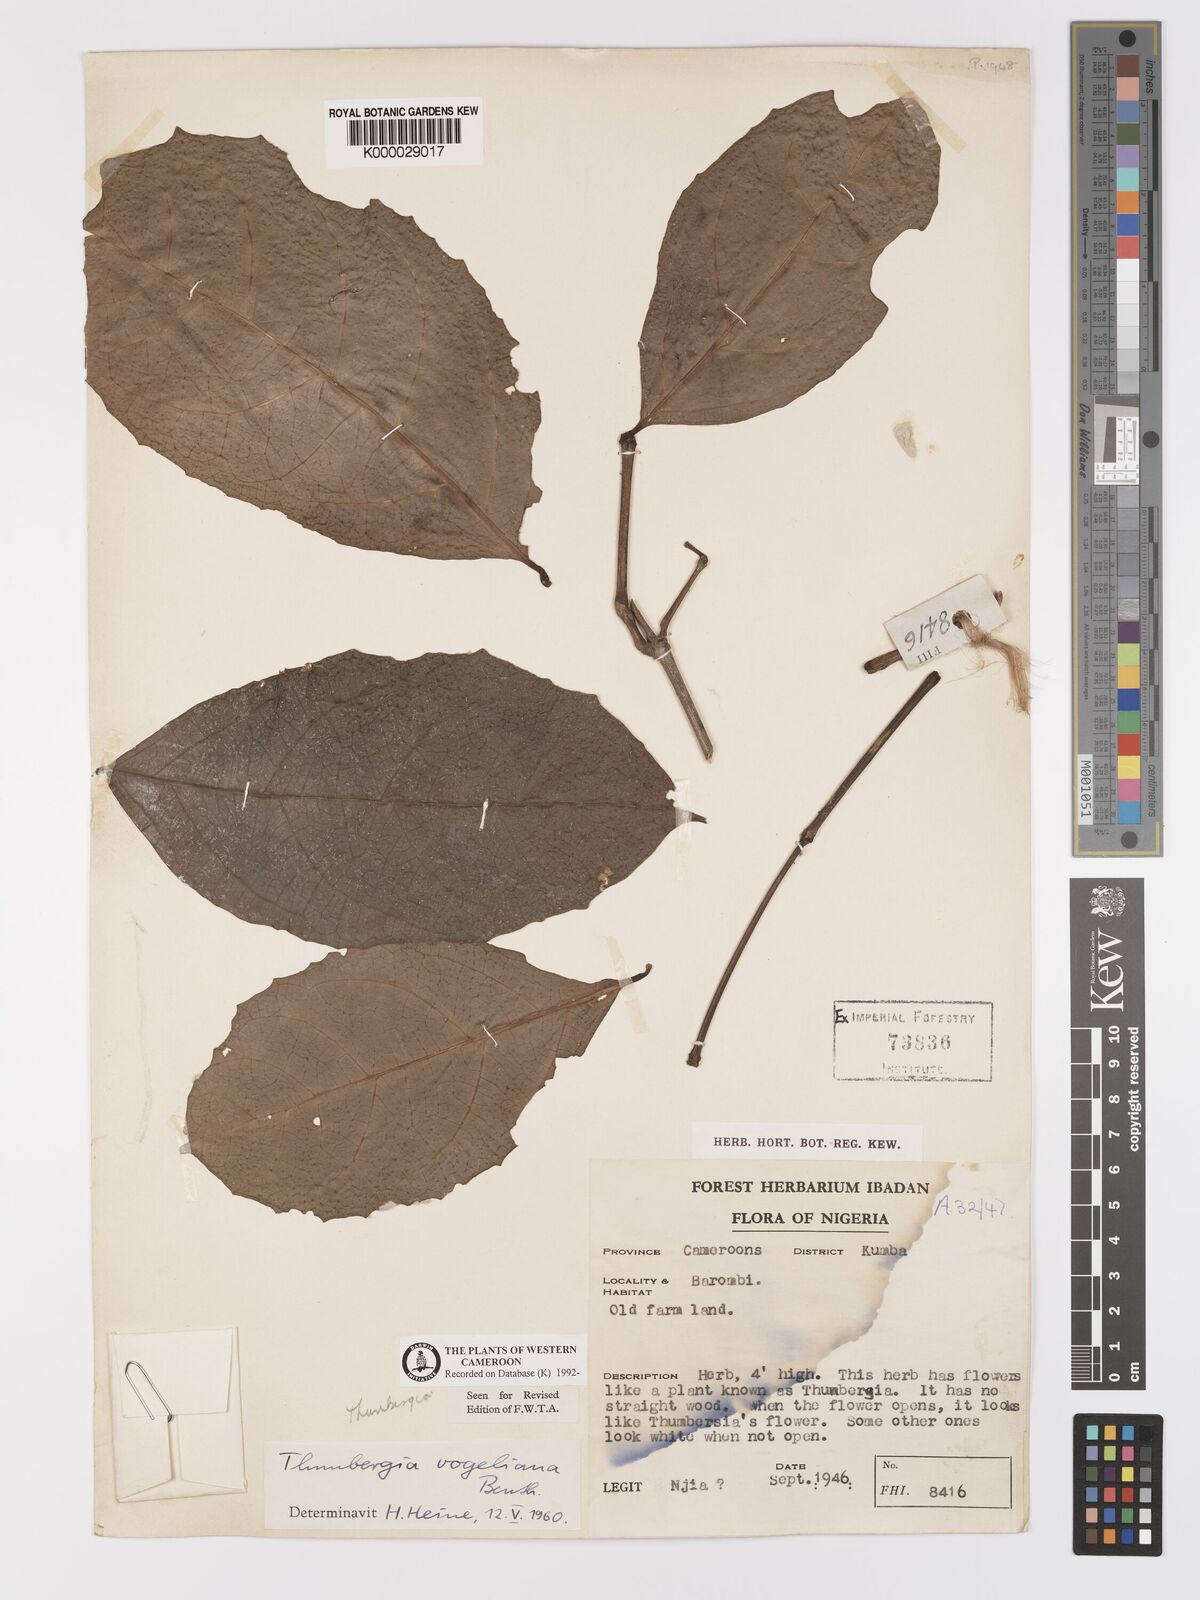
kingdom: Plantae
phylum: Tracheophyta
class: Magnoliopsida
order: Lamiales
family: Acanthaceae
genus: Thunbergia
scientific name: Thunbergia vogeliana
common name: Acanthaceae
